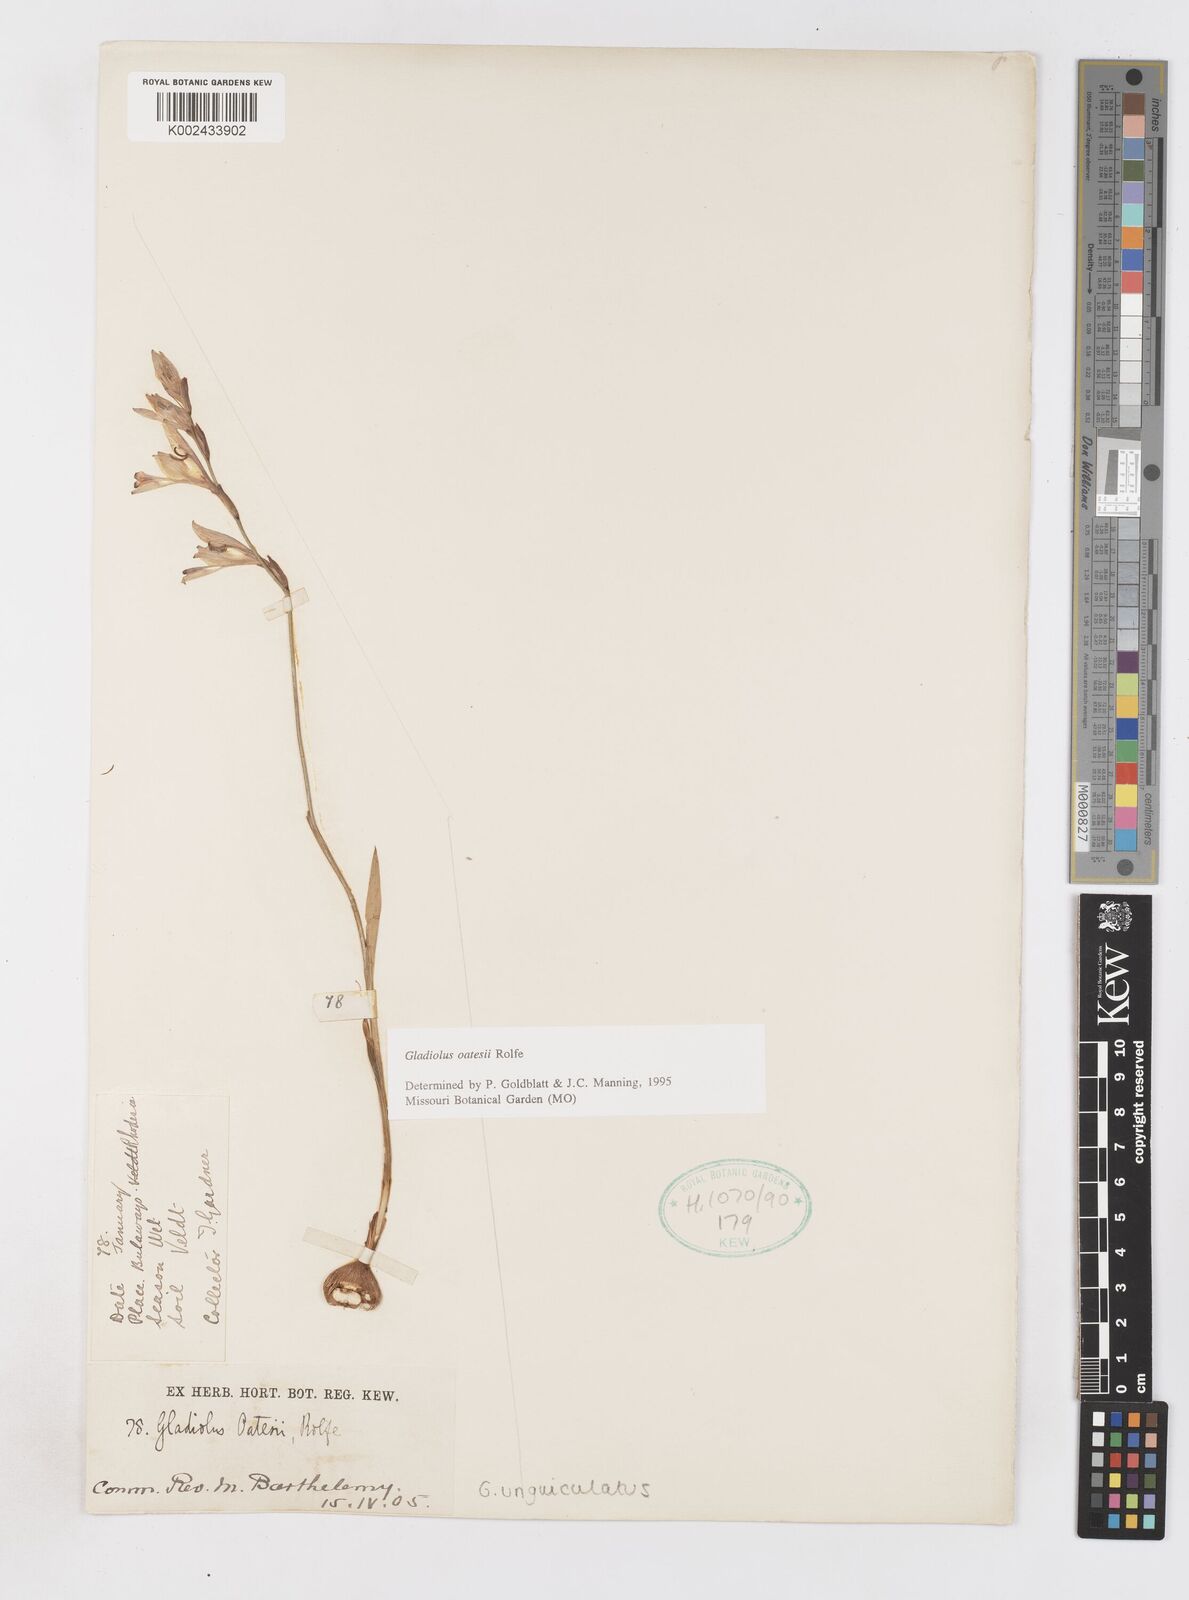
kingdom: Plantae
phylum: Tracheophyta
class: Liliopsida
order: Asparagales
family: Iridaceae
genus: Gladiolus
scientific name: Gladiolus unguiculatus
